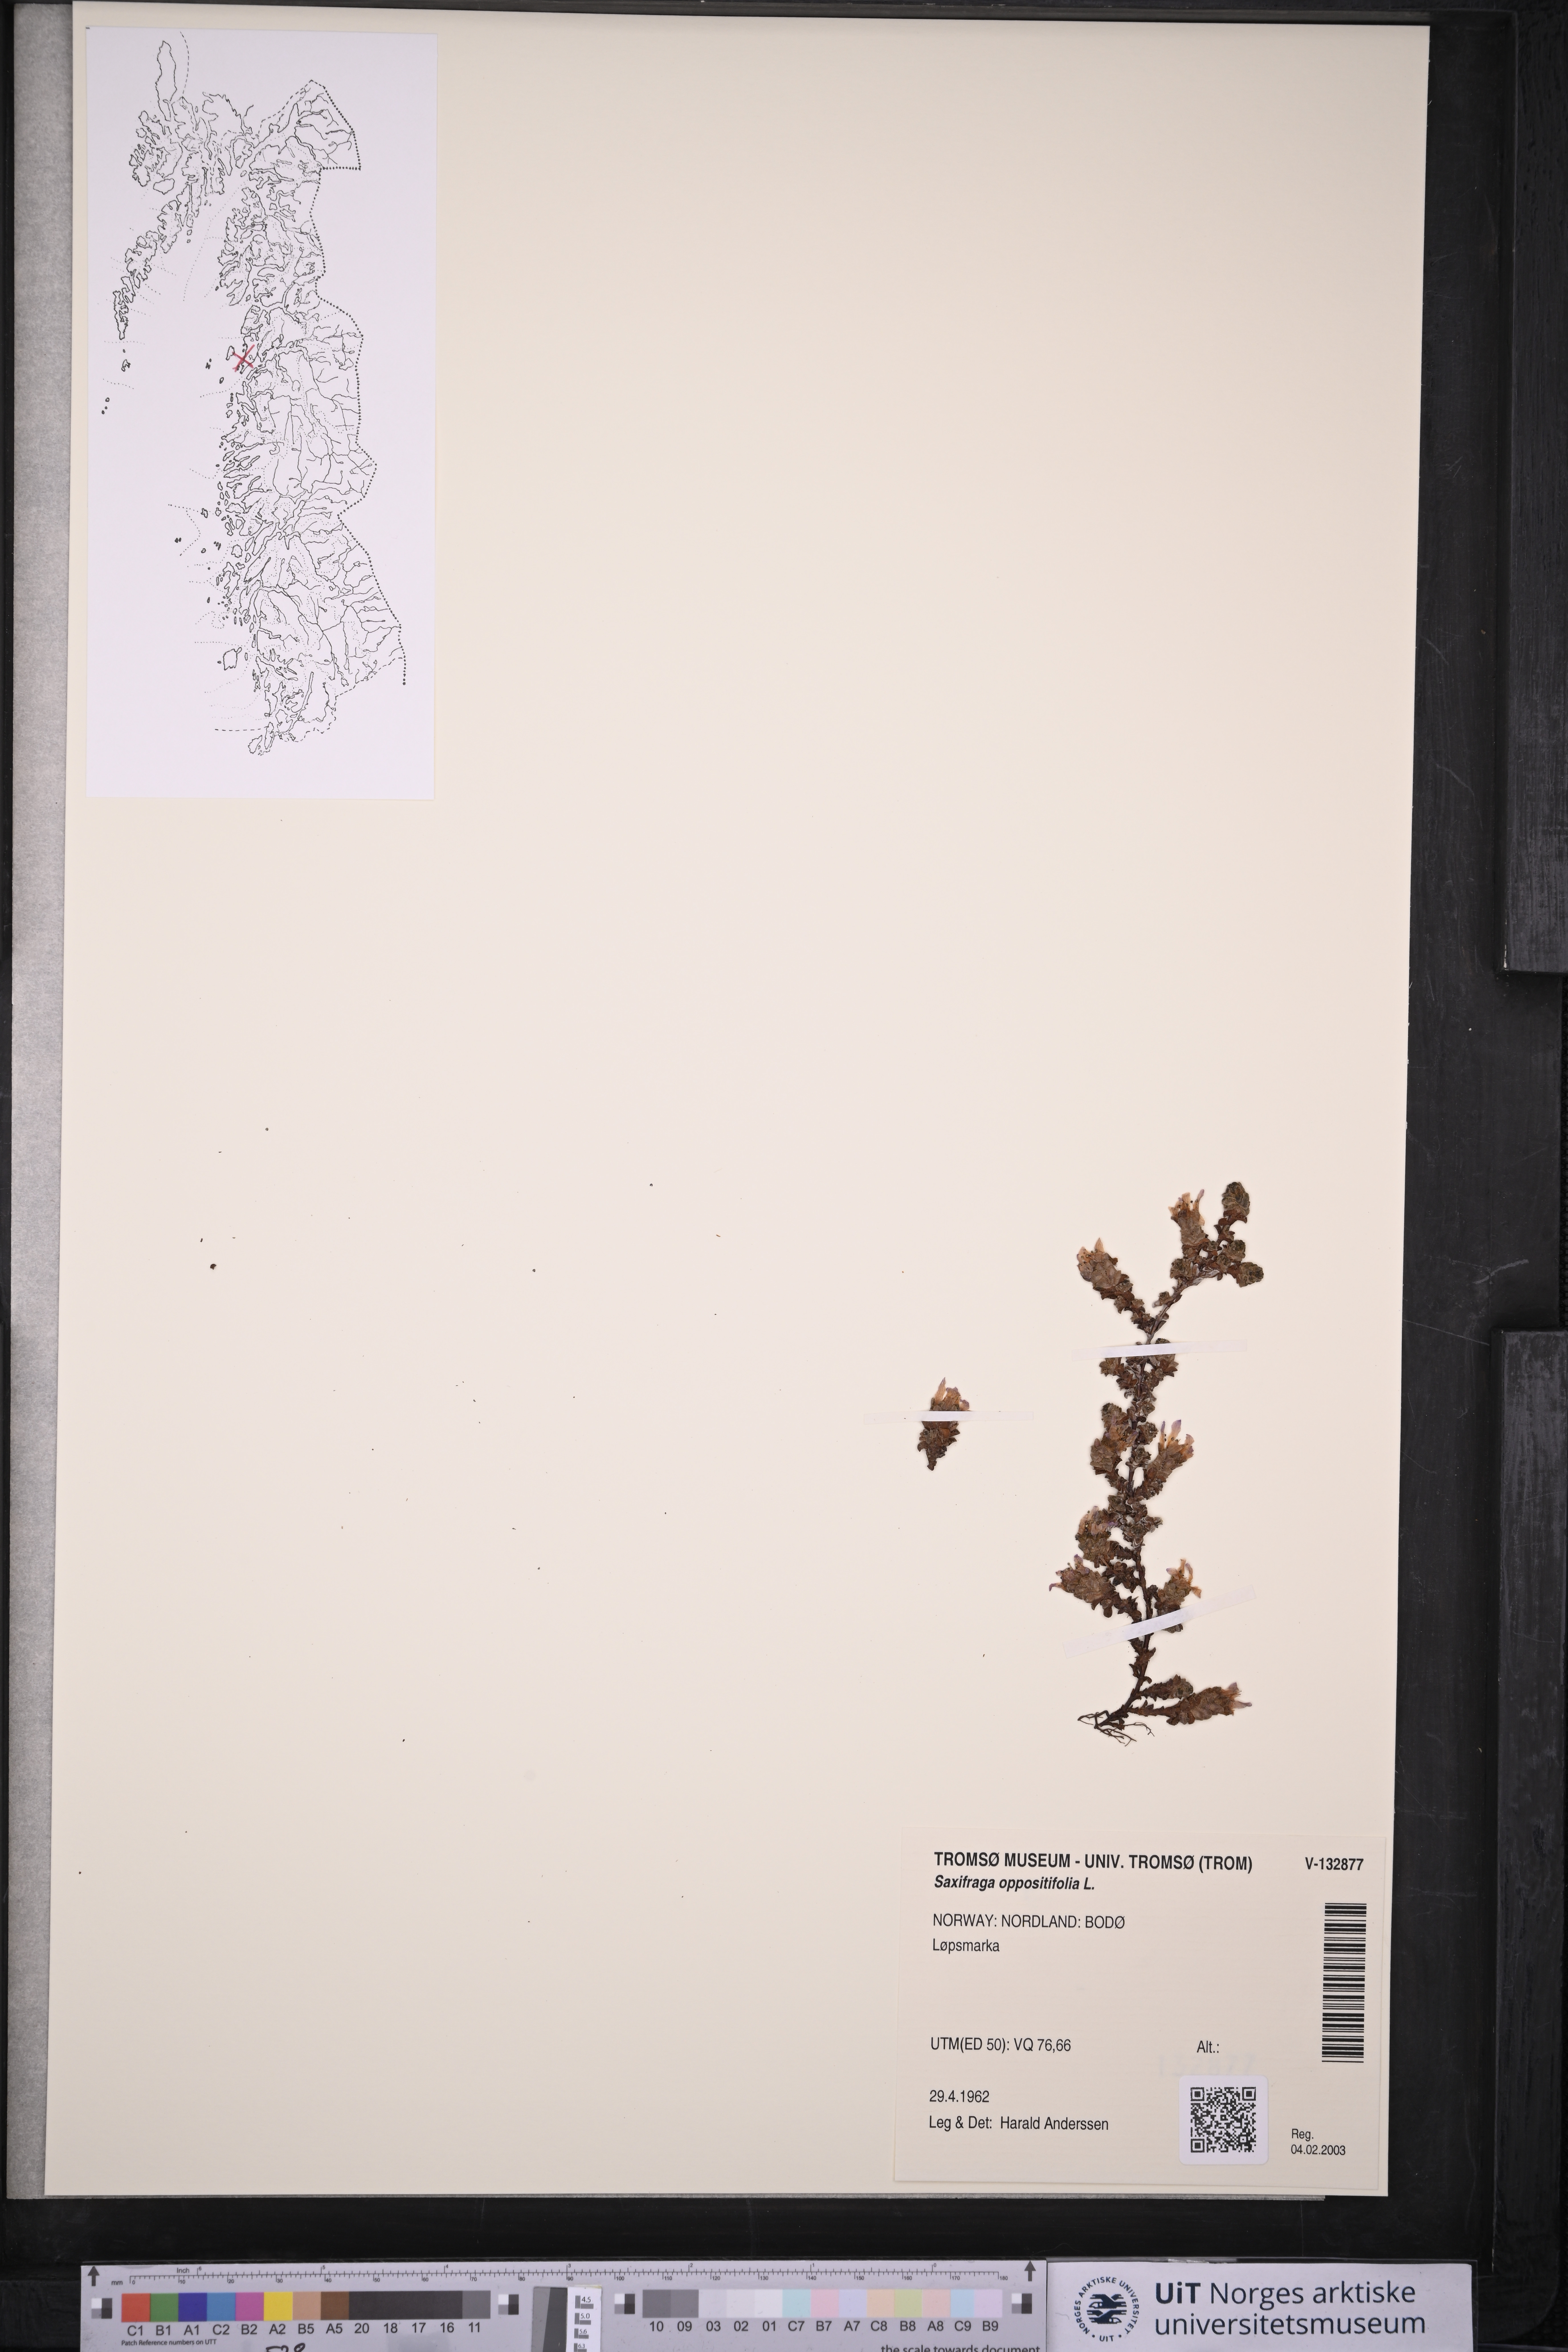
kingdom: Plantae
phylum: Tracheophyta
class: Magnoliopsida
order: Saxifragales
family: Saxifragaceae
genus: Saxifraga
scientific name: Saxifraga oppositifolia
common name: Purple saxifrage
